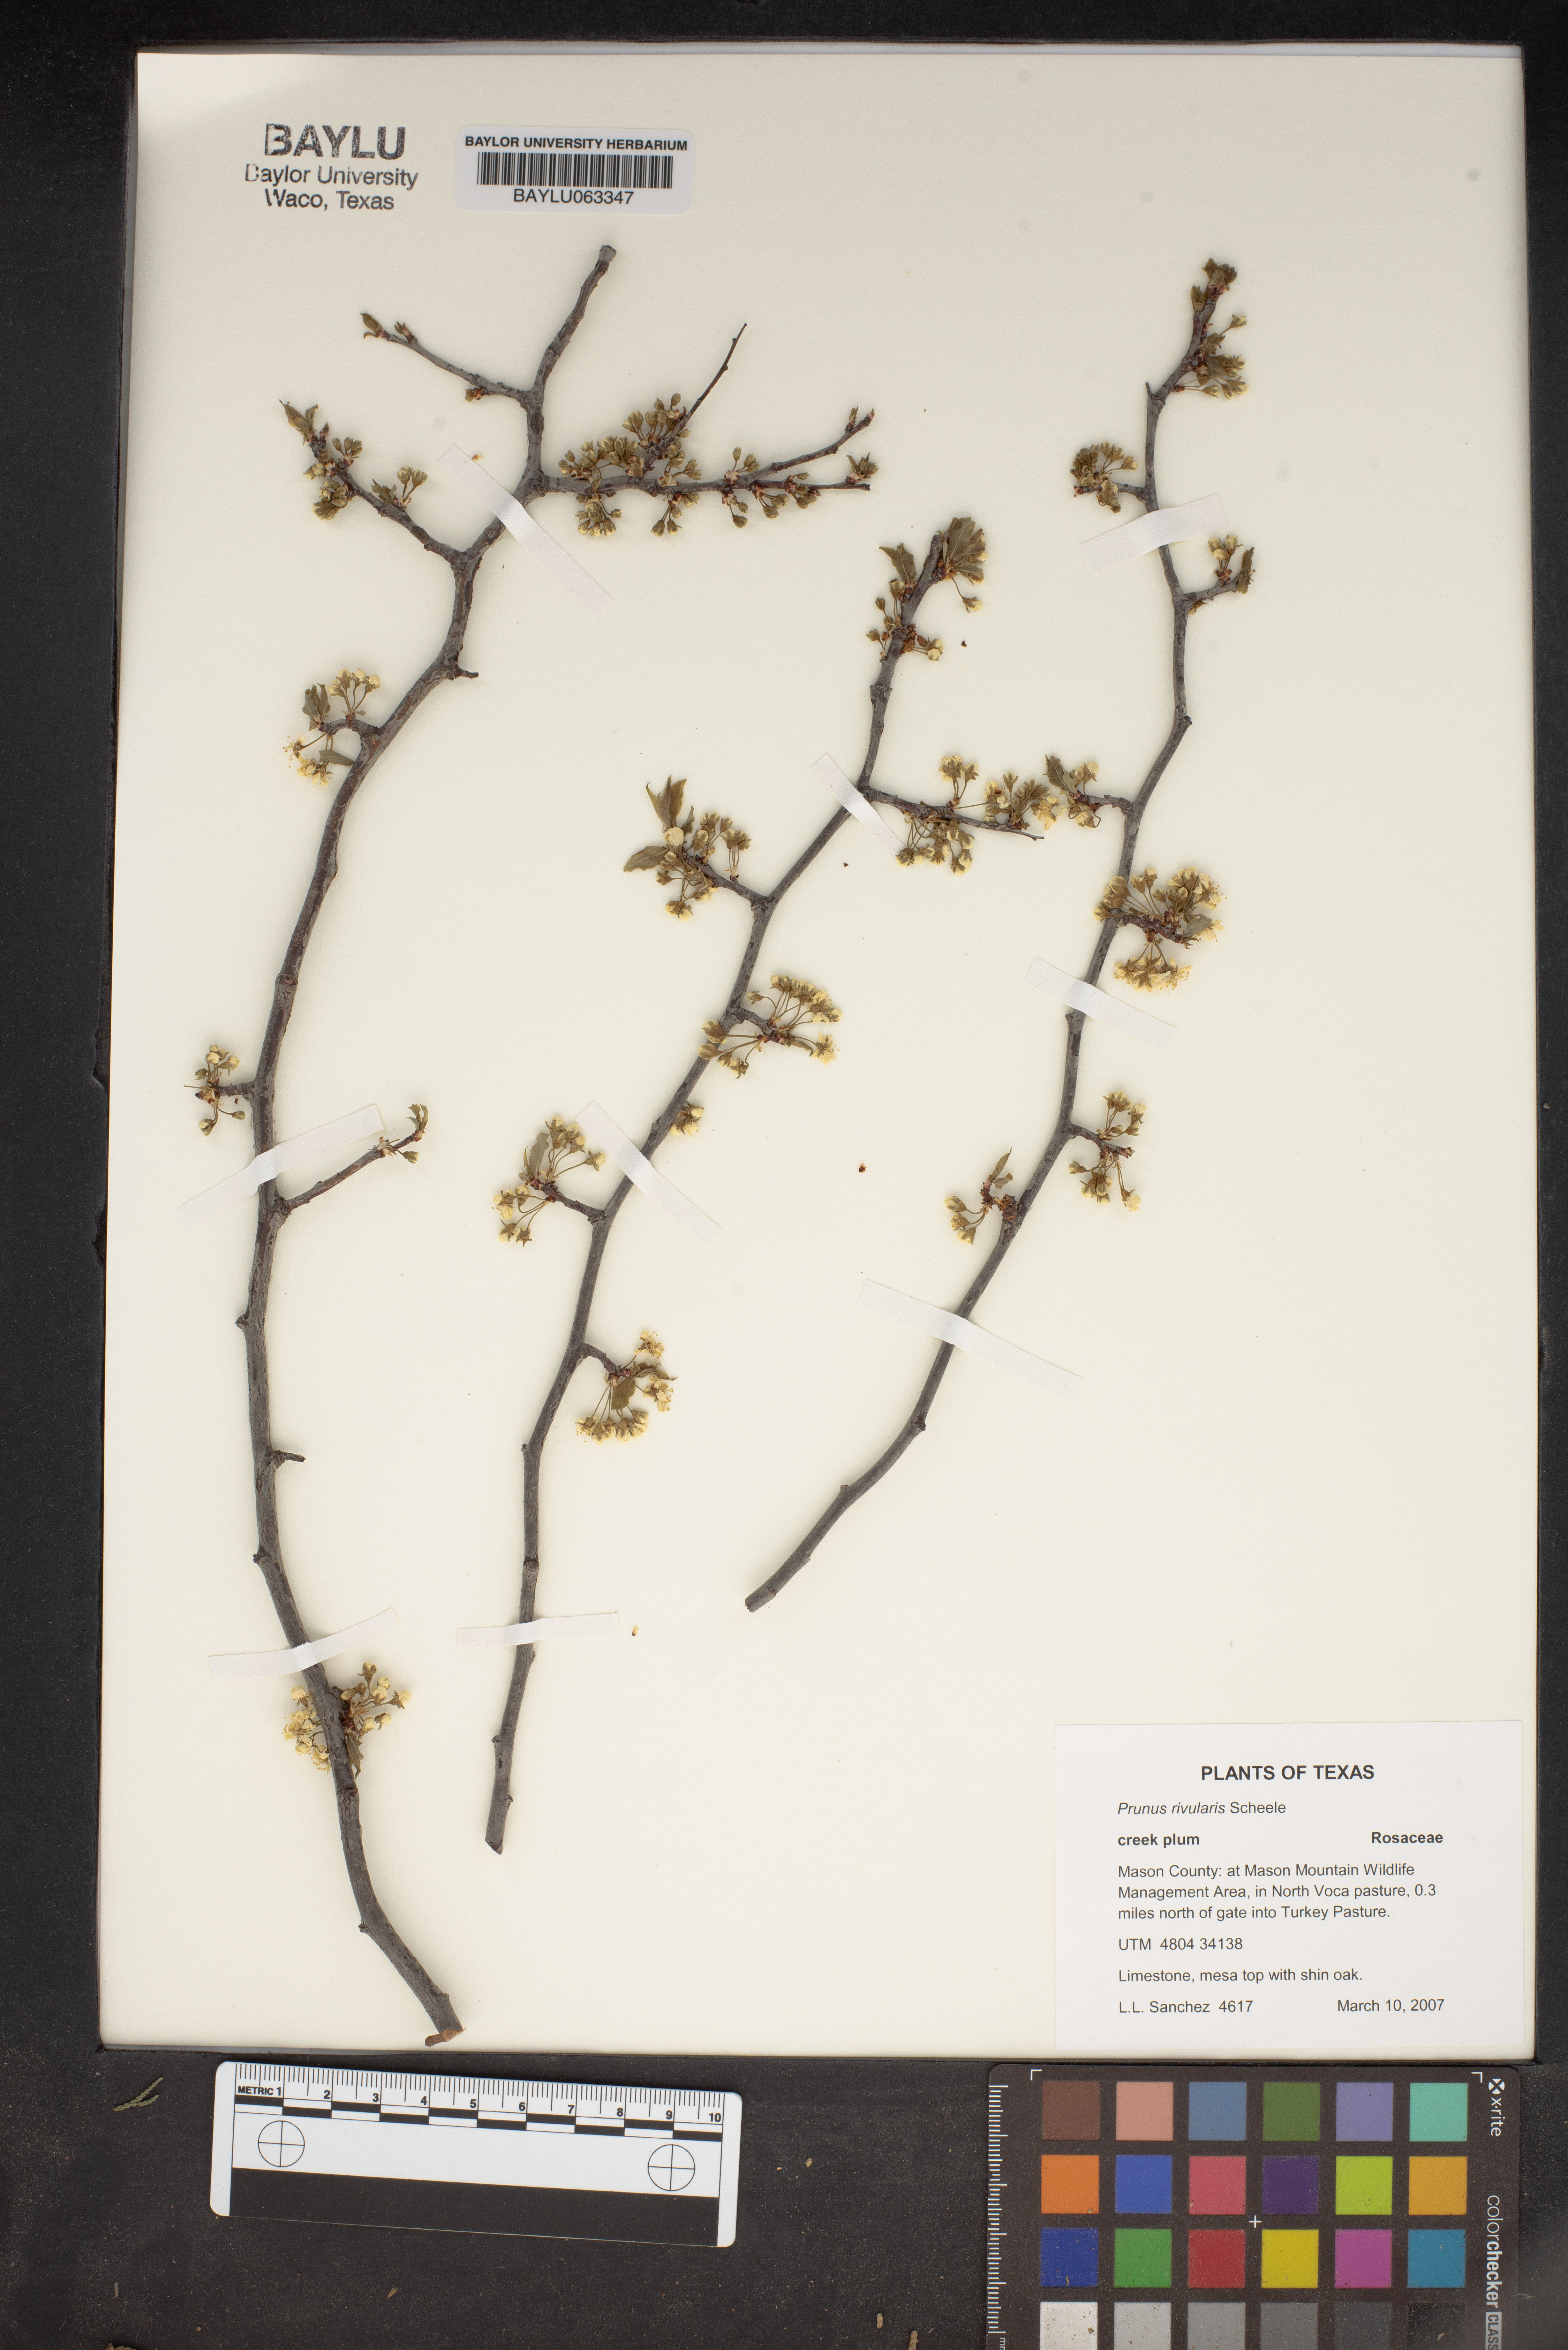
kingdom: Plantae
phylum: Tracheophyta
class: Magnoliopsida
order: Rosales
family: Rosaceae
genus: Prunus
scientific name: Prunus rivularis
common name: Creek plum
